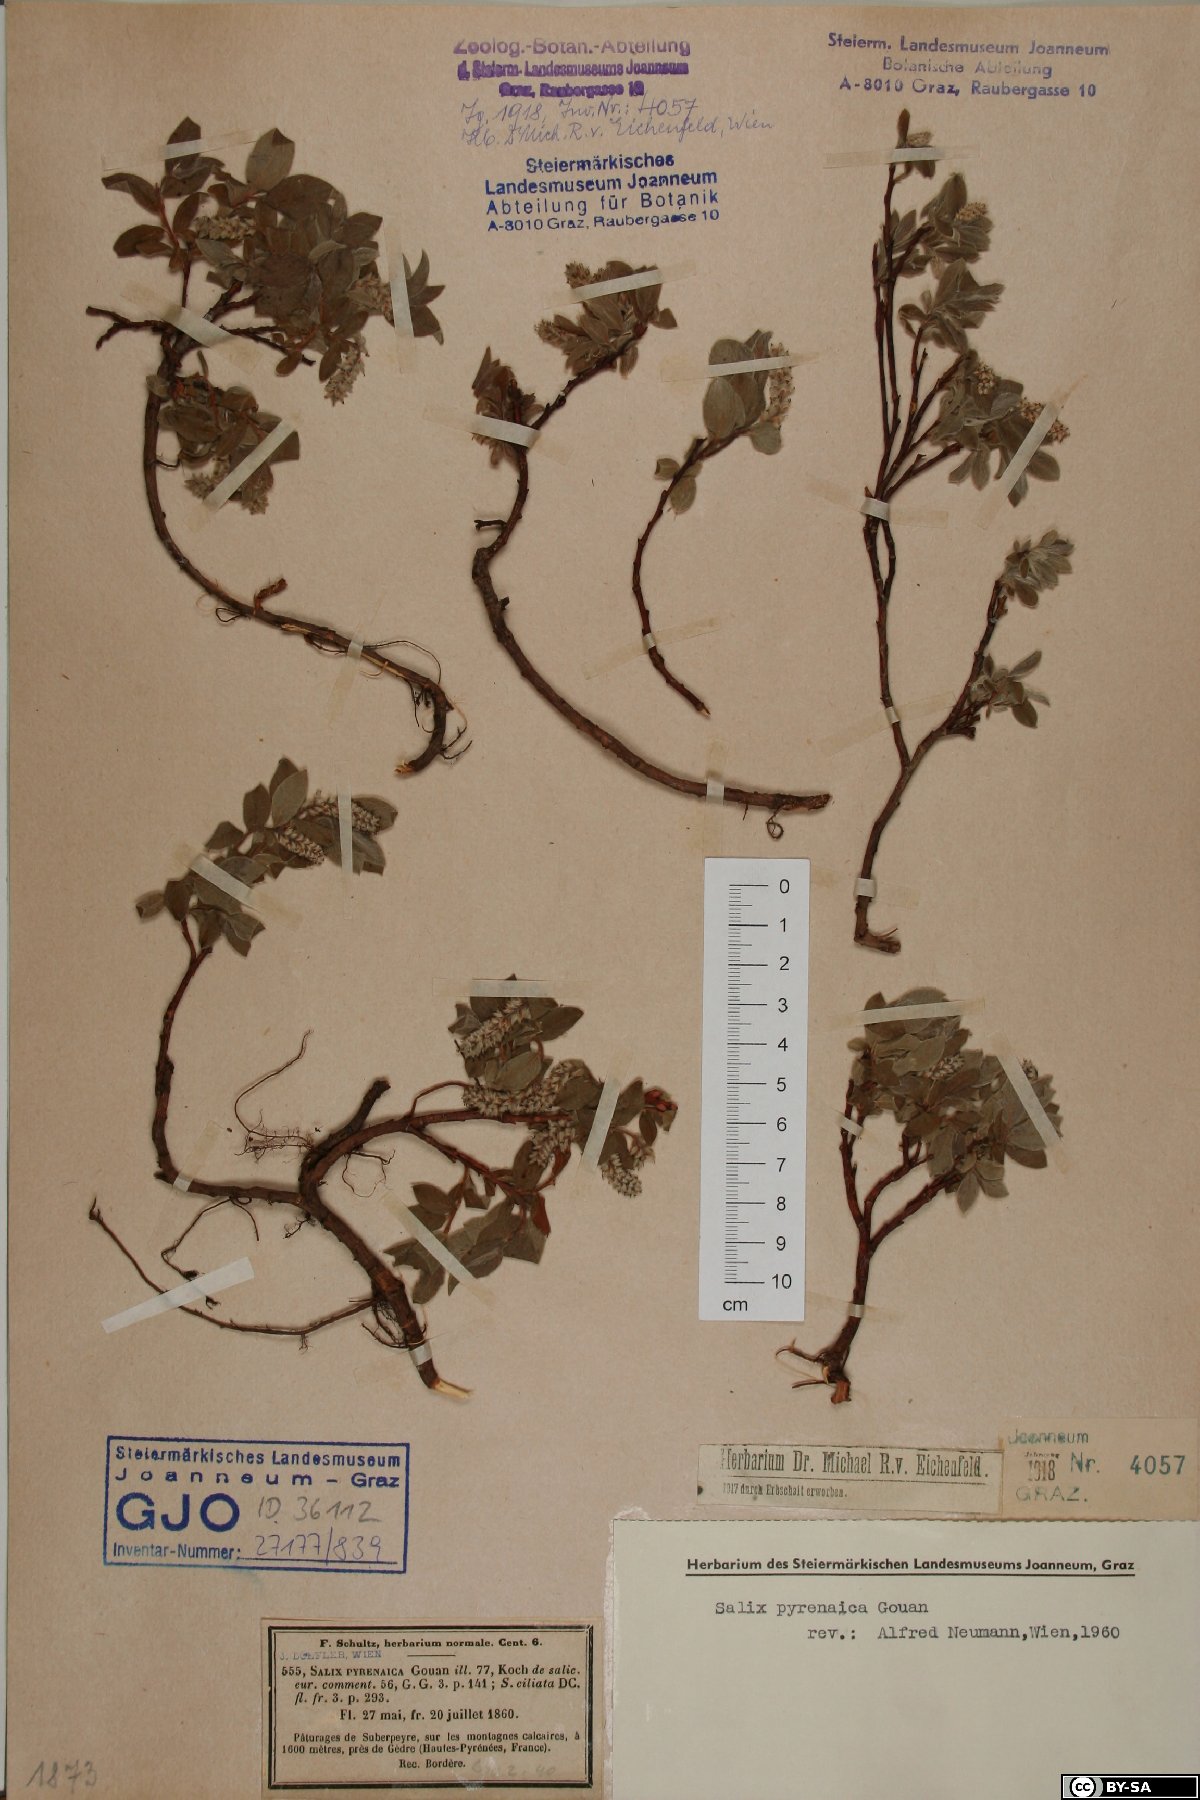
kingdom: Plantae
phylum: Tracheophyta
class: Magnoliopsida
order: Malpighiales
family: Salicaceae
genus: Salix
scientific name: Salix pyrenaica
